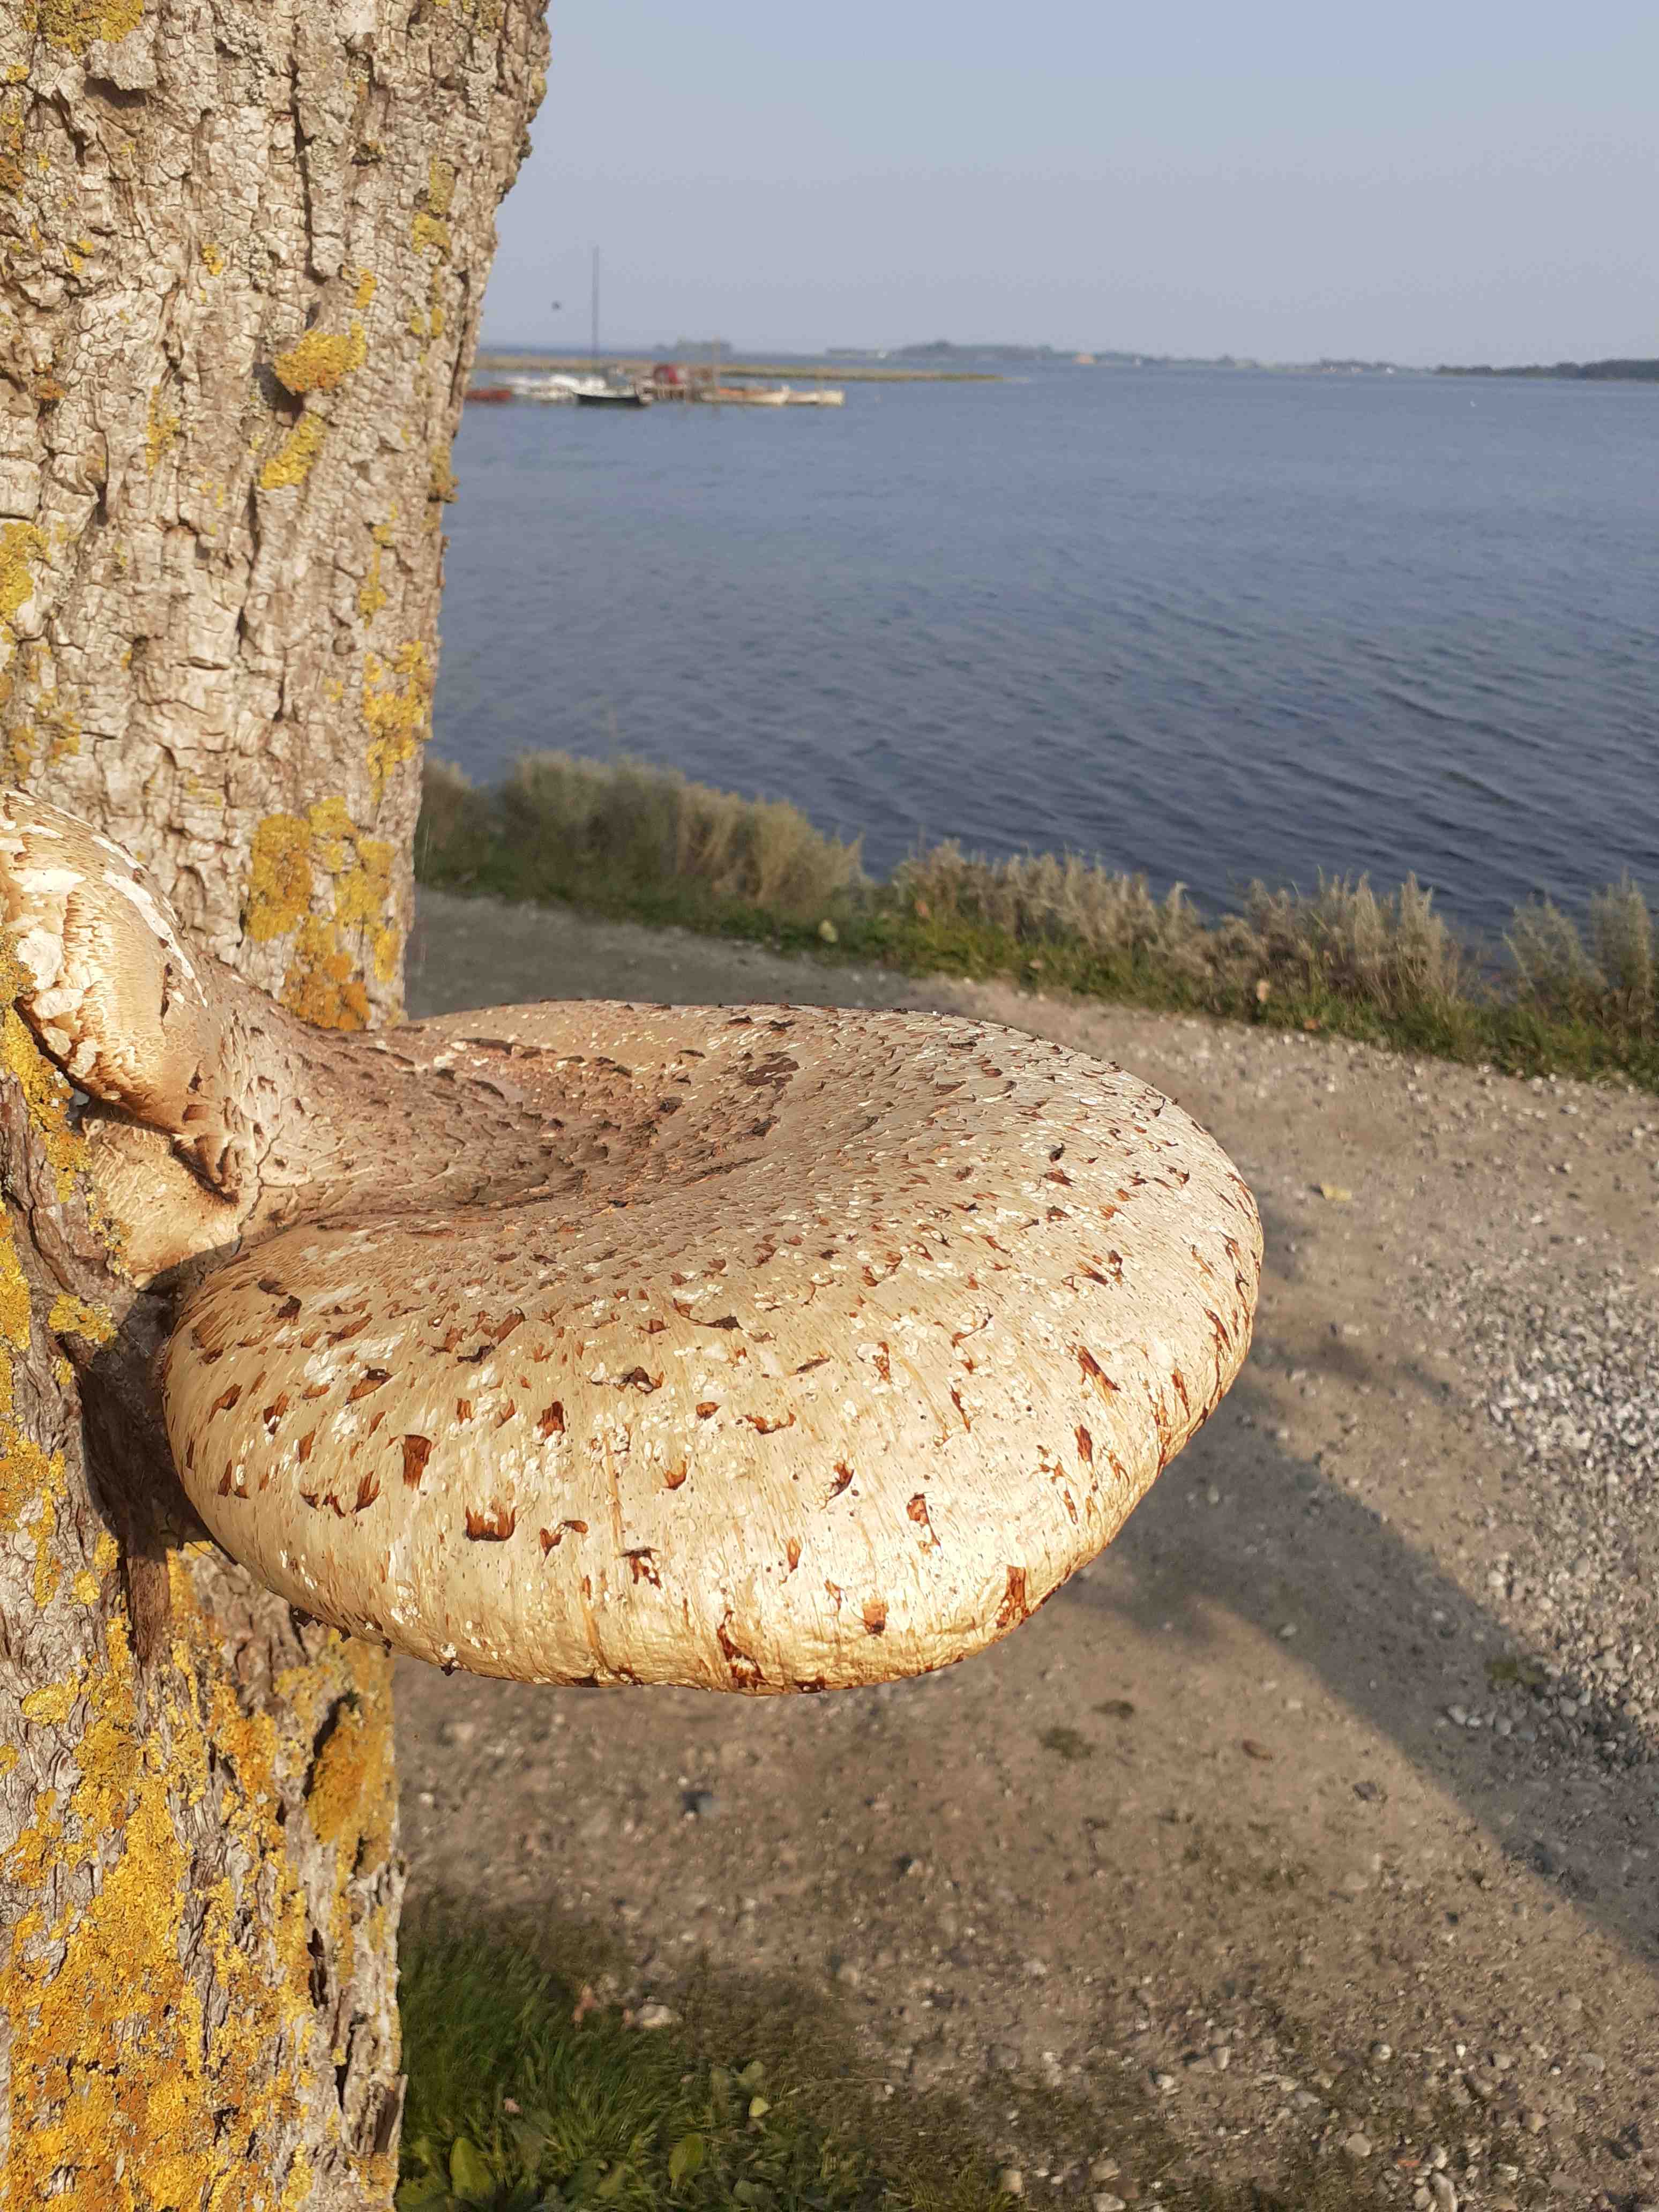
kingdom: Fungi
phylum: Basidiomycota
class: Agaricomycetes
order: Polyporales
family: Polyporaceae
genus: Cerioporus
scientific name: Cerioporus squamosus
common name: skællet stilkporesvamp
